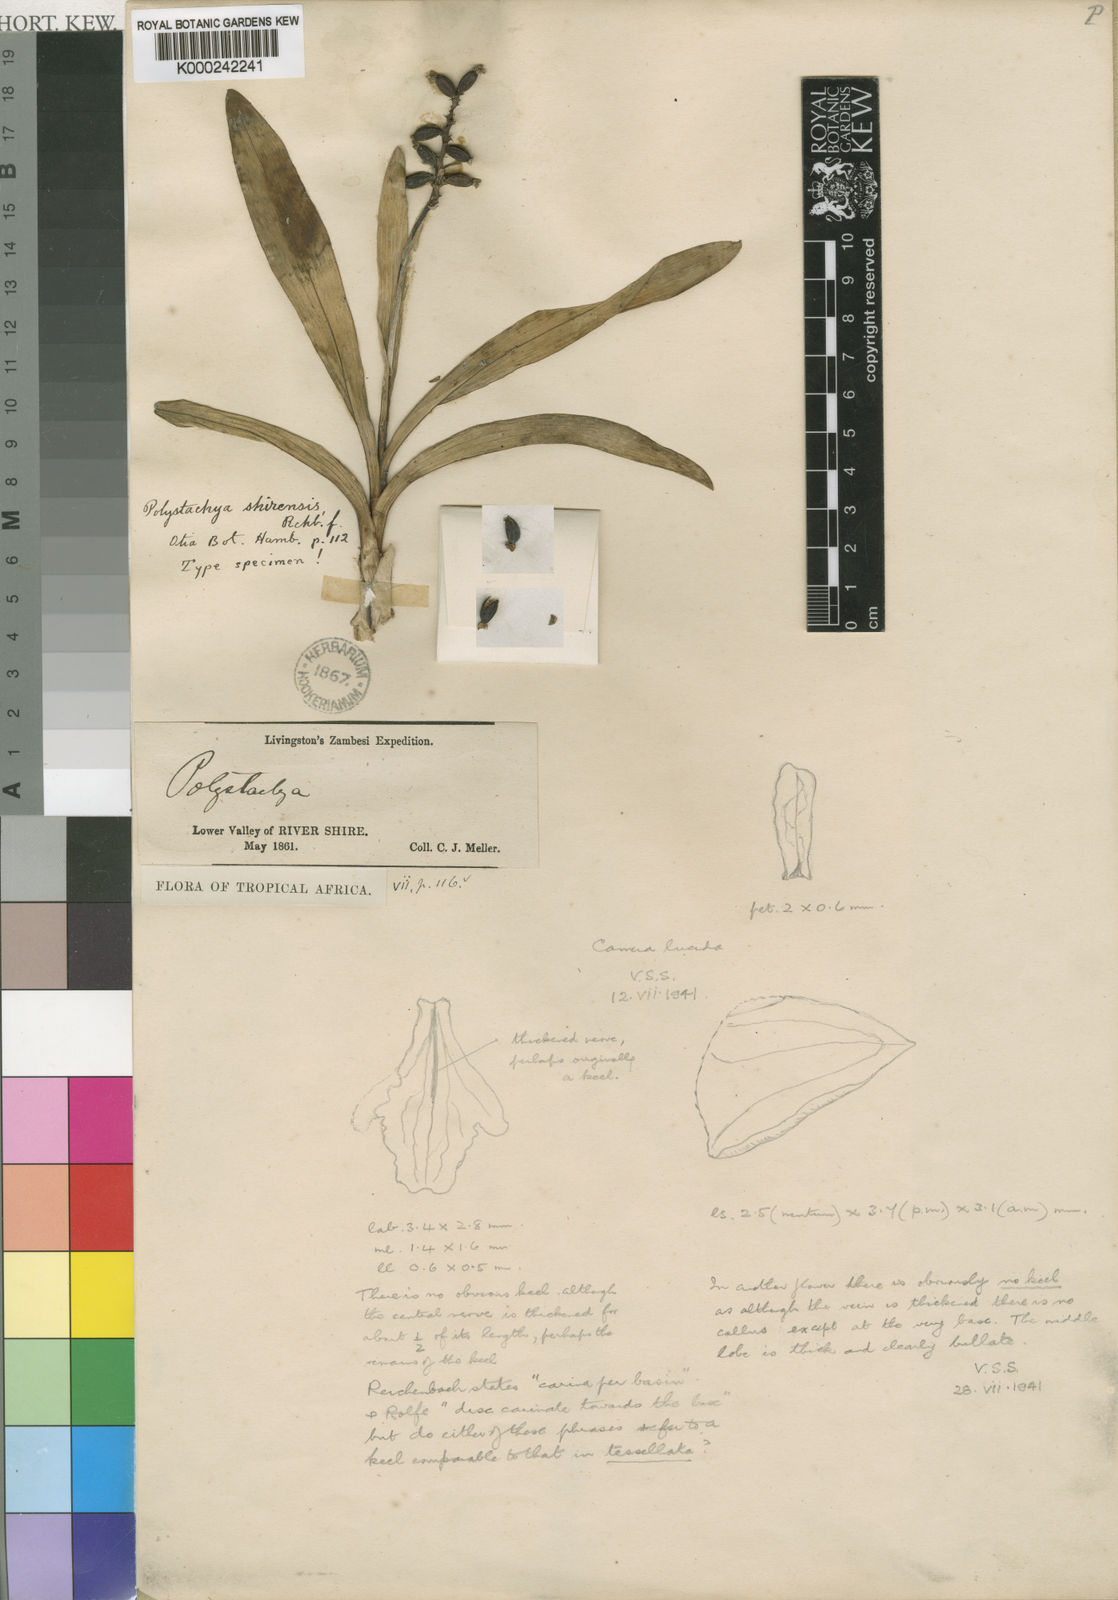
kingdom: Plantae
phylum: Tracheophyta
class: Liliopsida
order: Asparagales
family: Orchidaceae
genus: Polystachya
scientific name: Polystachya modesta
